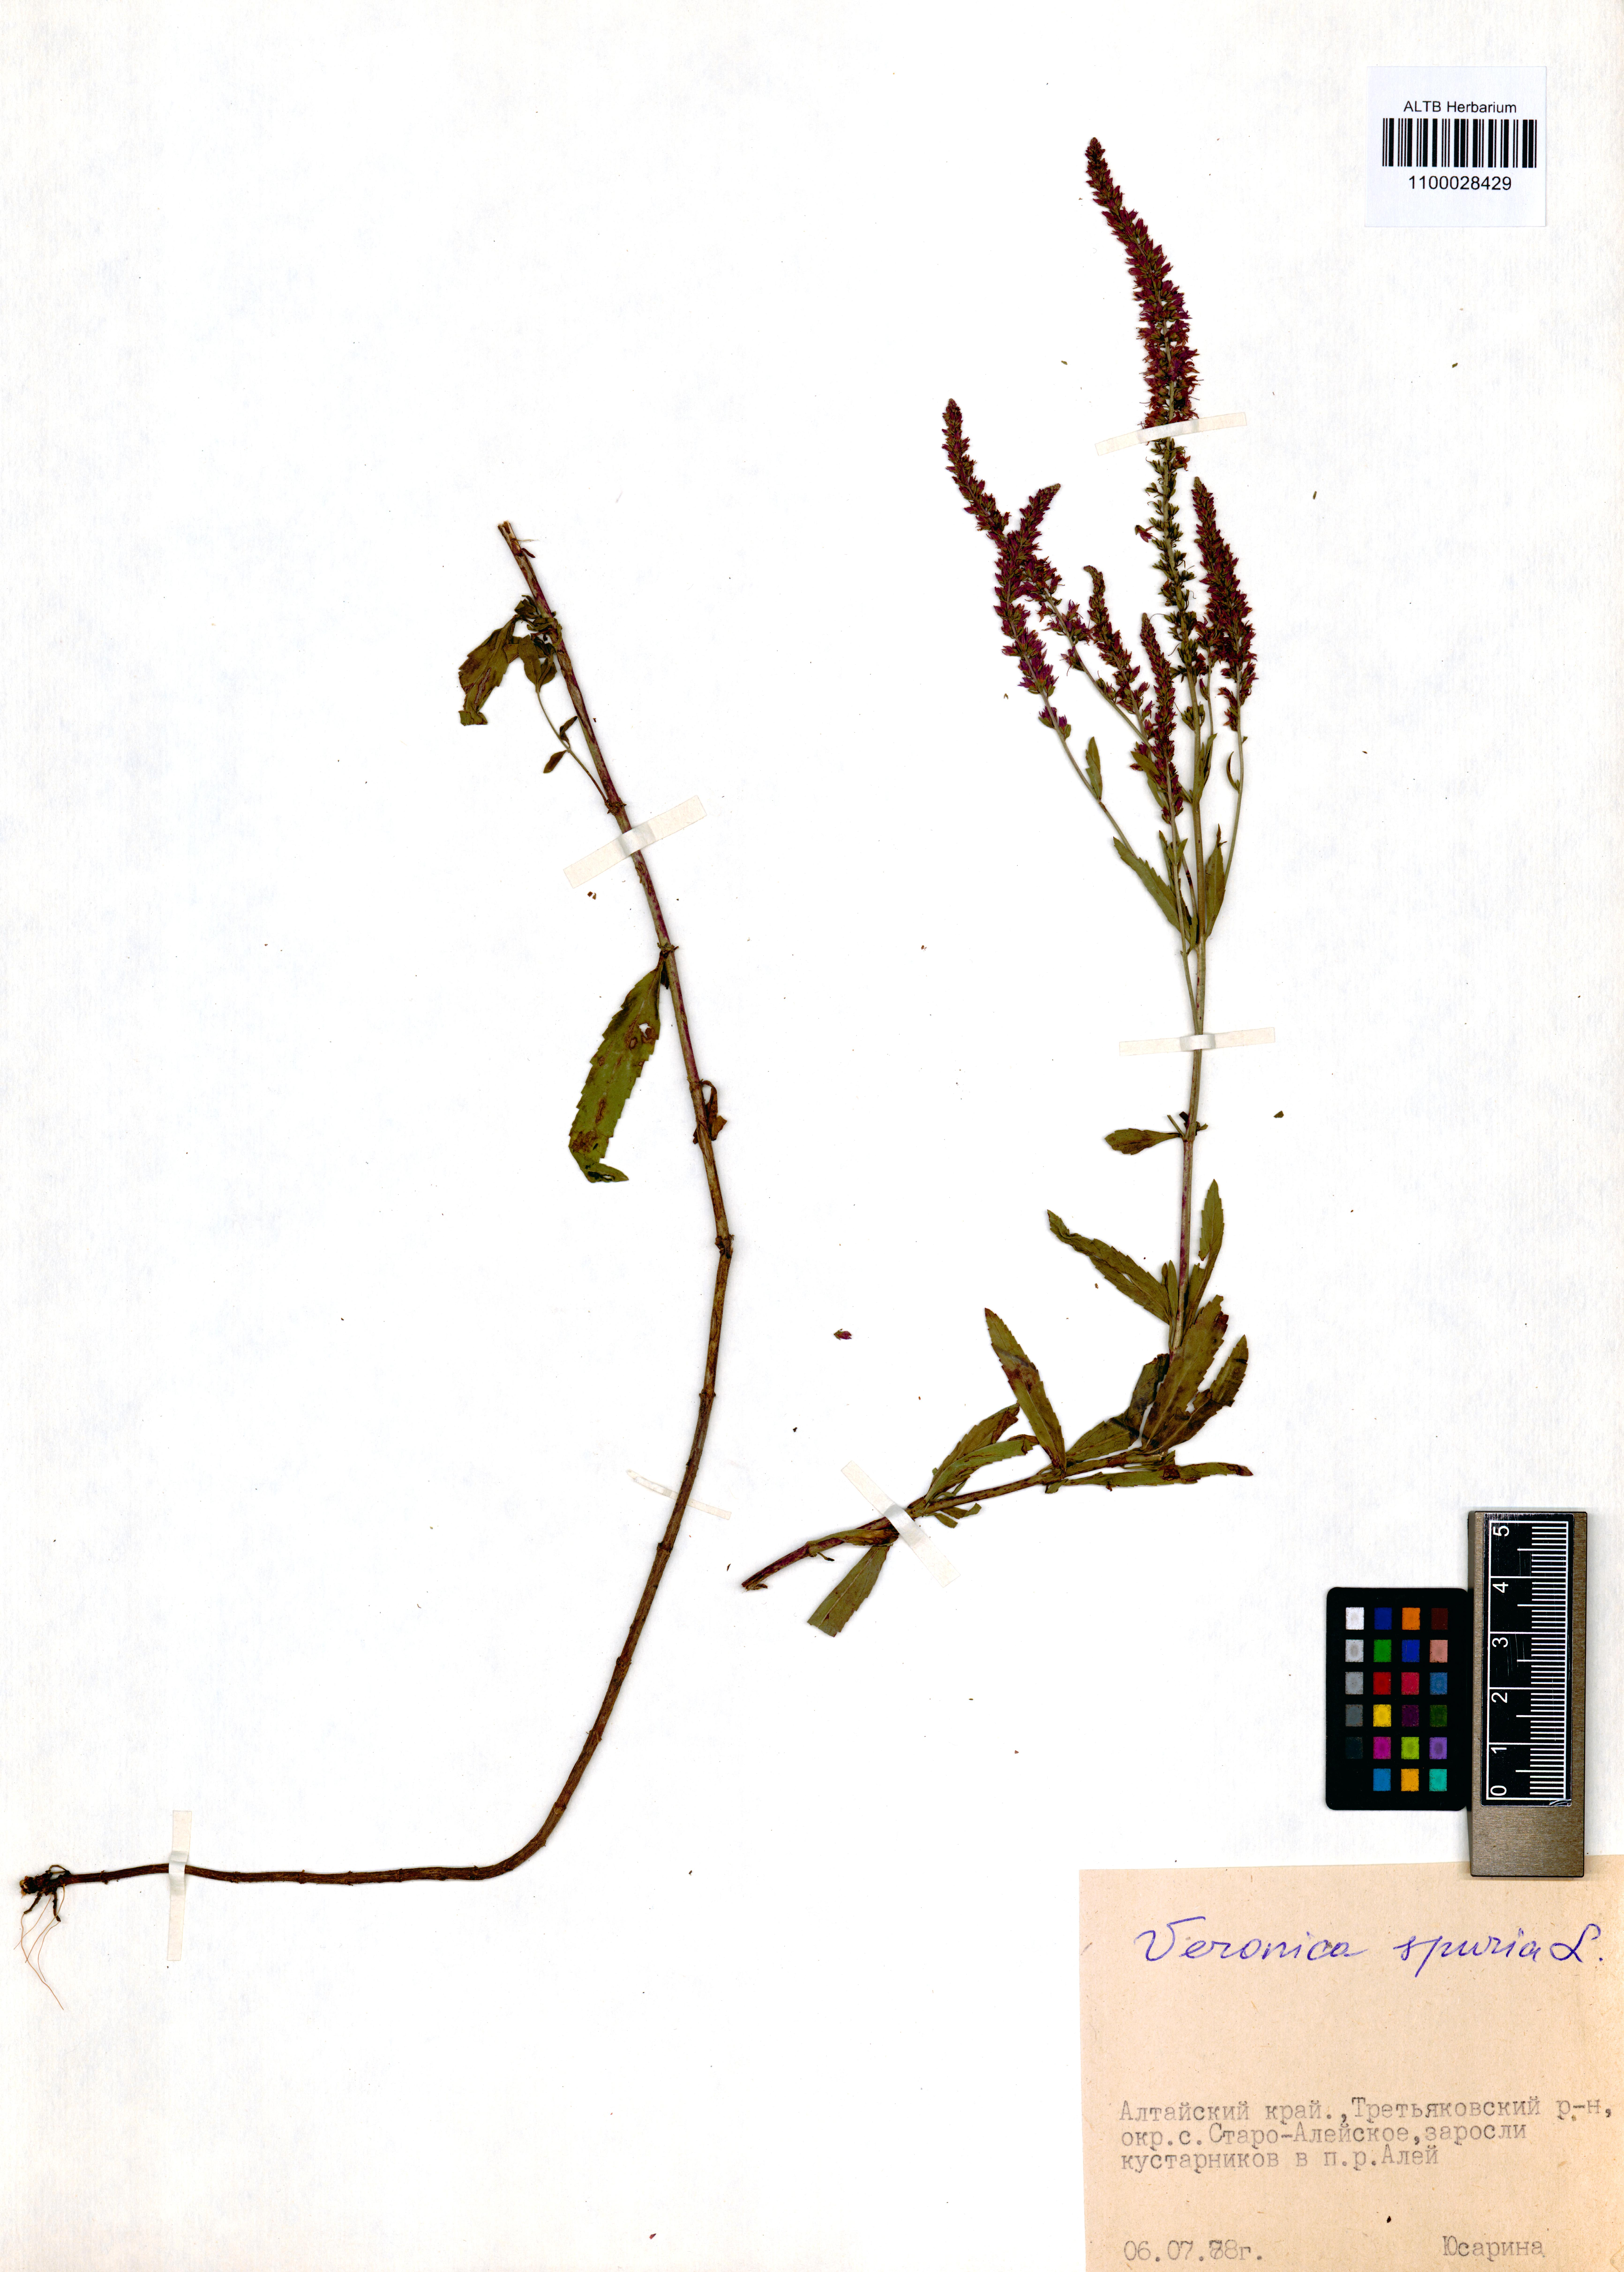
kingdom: Plantae
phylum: Tracheophyta
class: Magnoliopsida
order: Lamiales
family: Plantaginaceae
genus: Veronica
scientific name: Veronica spicata
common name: Spiked speedwell
